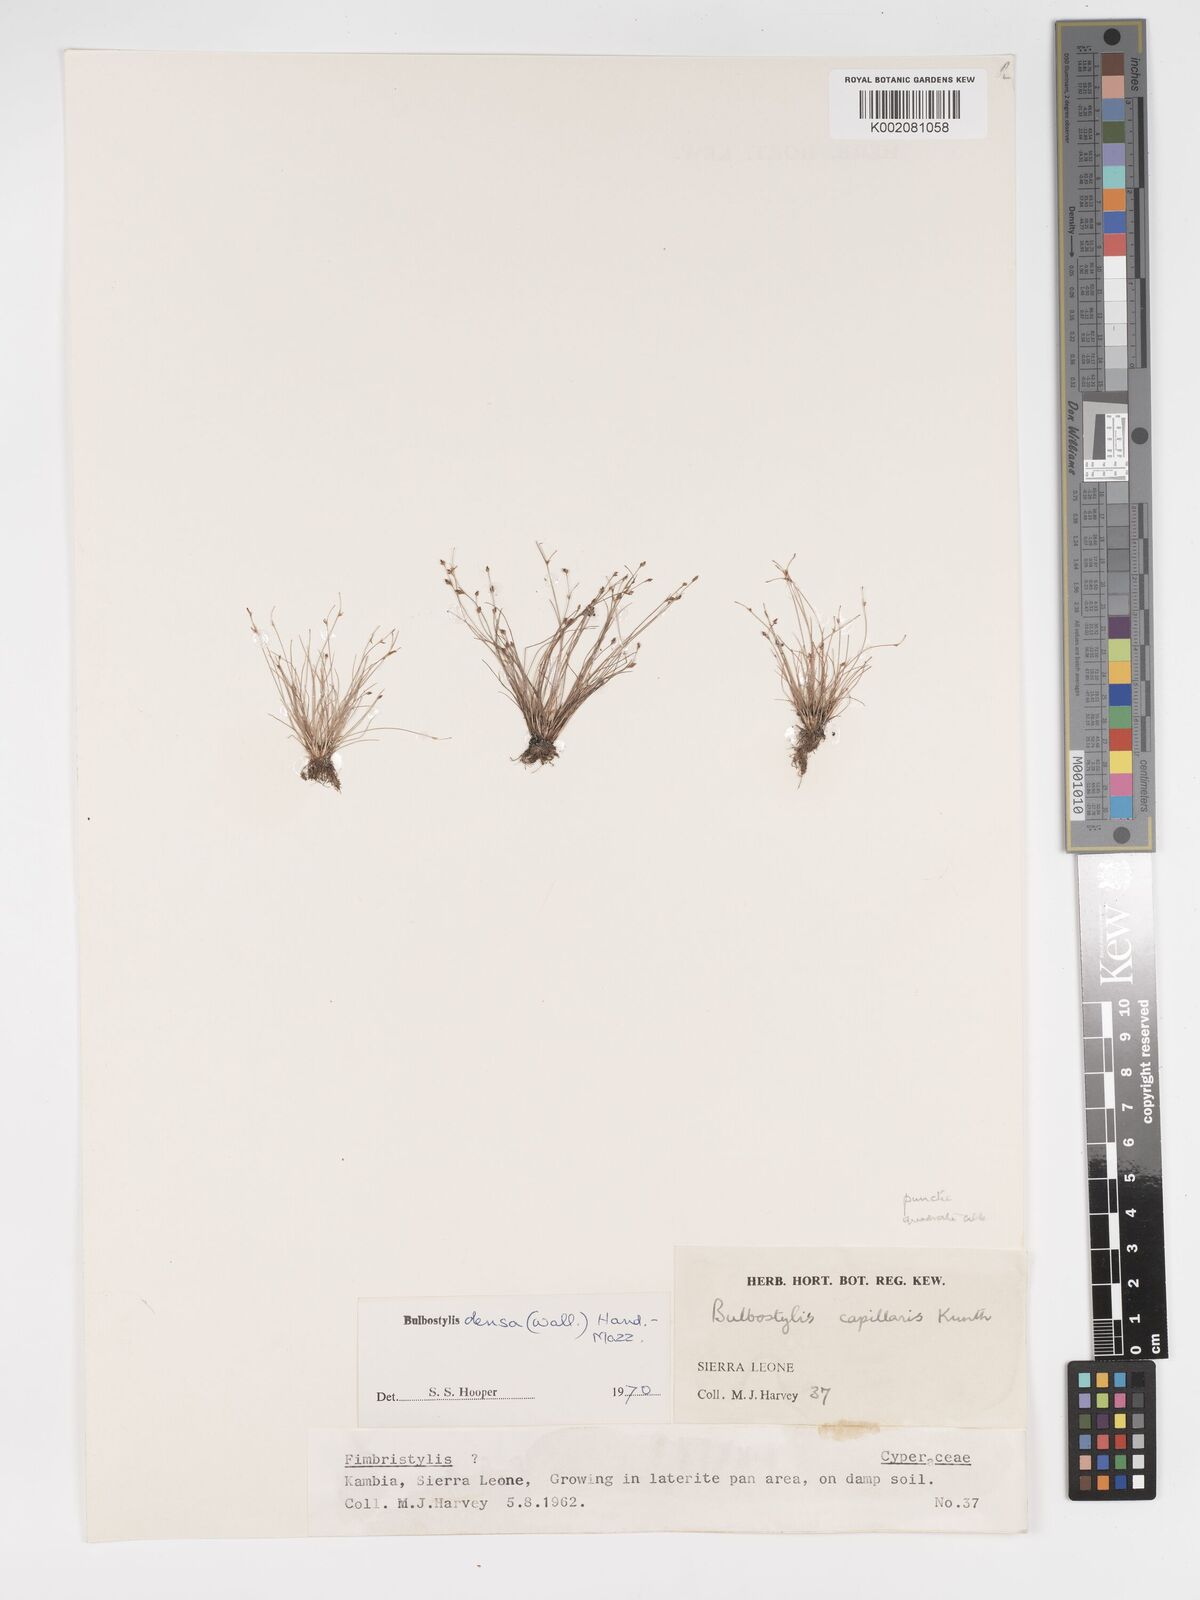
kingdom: Plantae
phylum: Tracheophyta
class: Liliopsida
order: Poales
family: Cyperaceae
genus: Bulbostylis
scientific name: Bulbostylis densa
